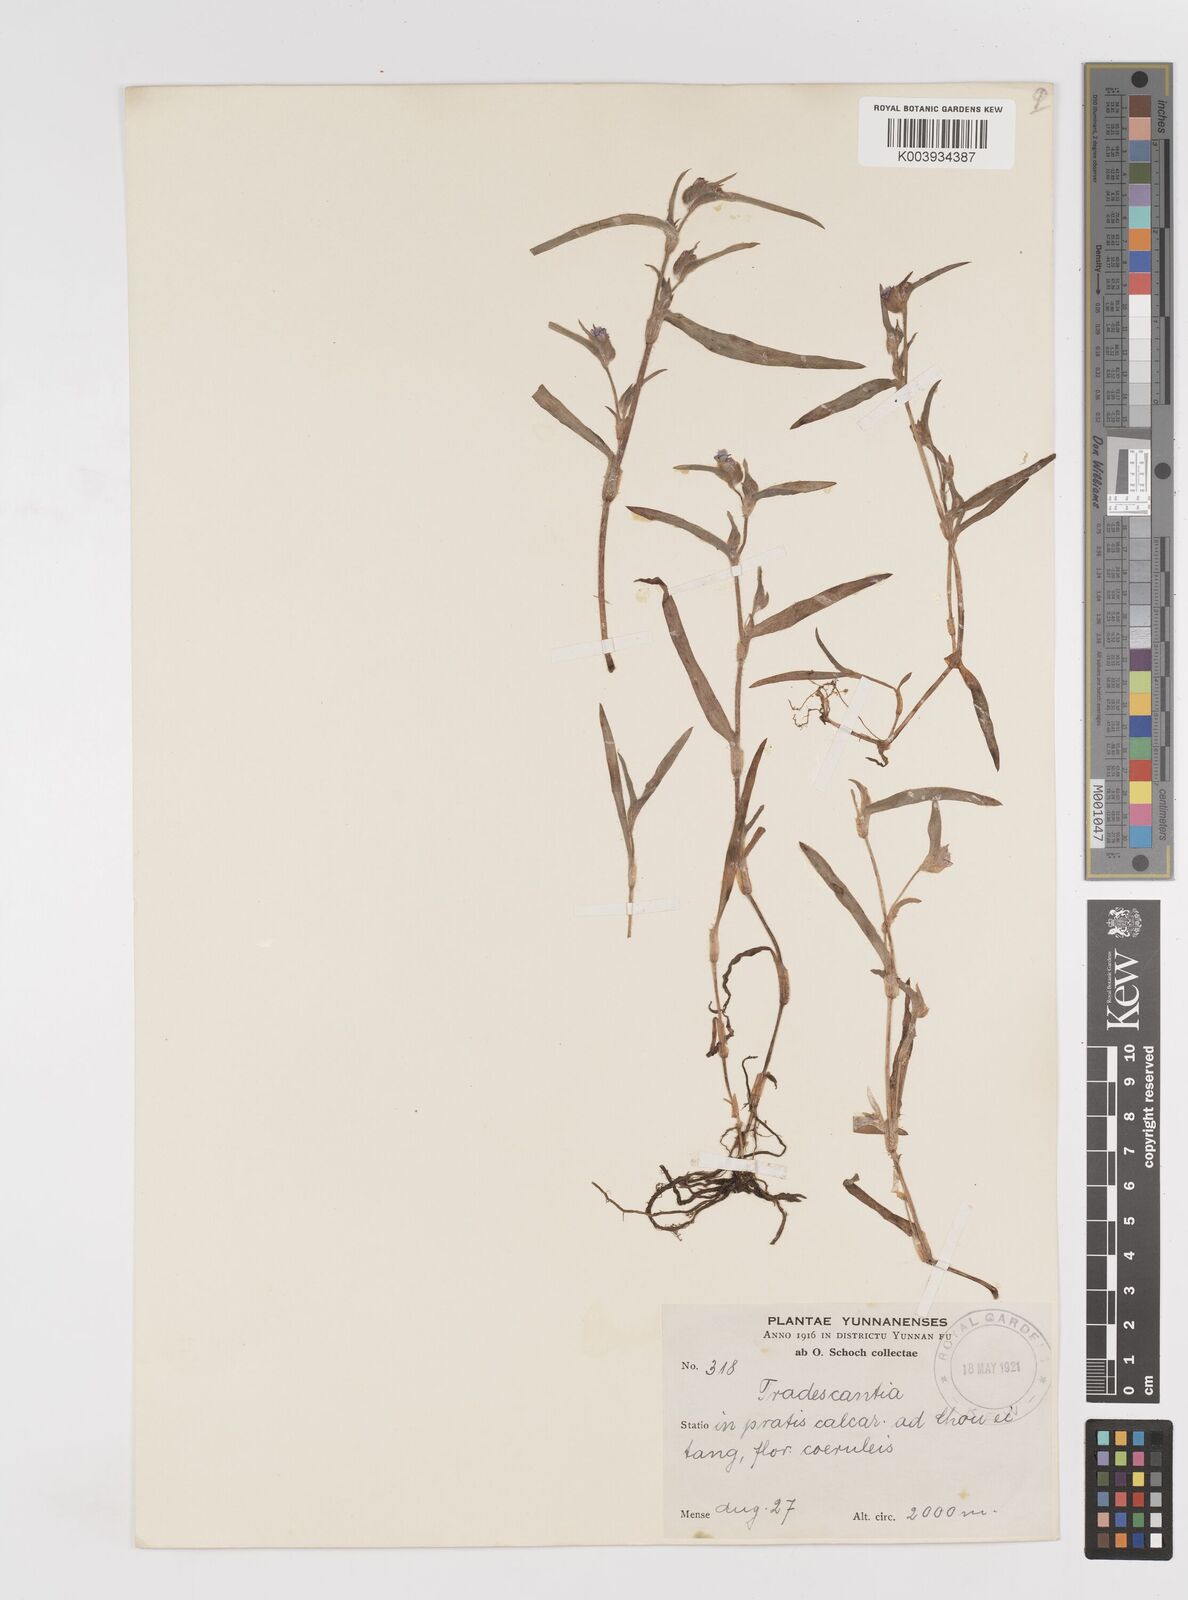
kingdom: Plantae
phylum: Tracheophyta
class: Liliopsida
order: Commelinales
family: Commelinaceae
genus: Cyanotis
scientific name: Cyanotis
